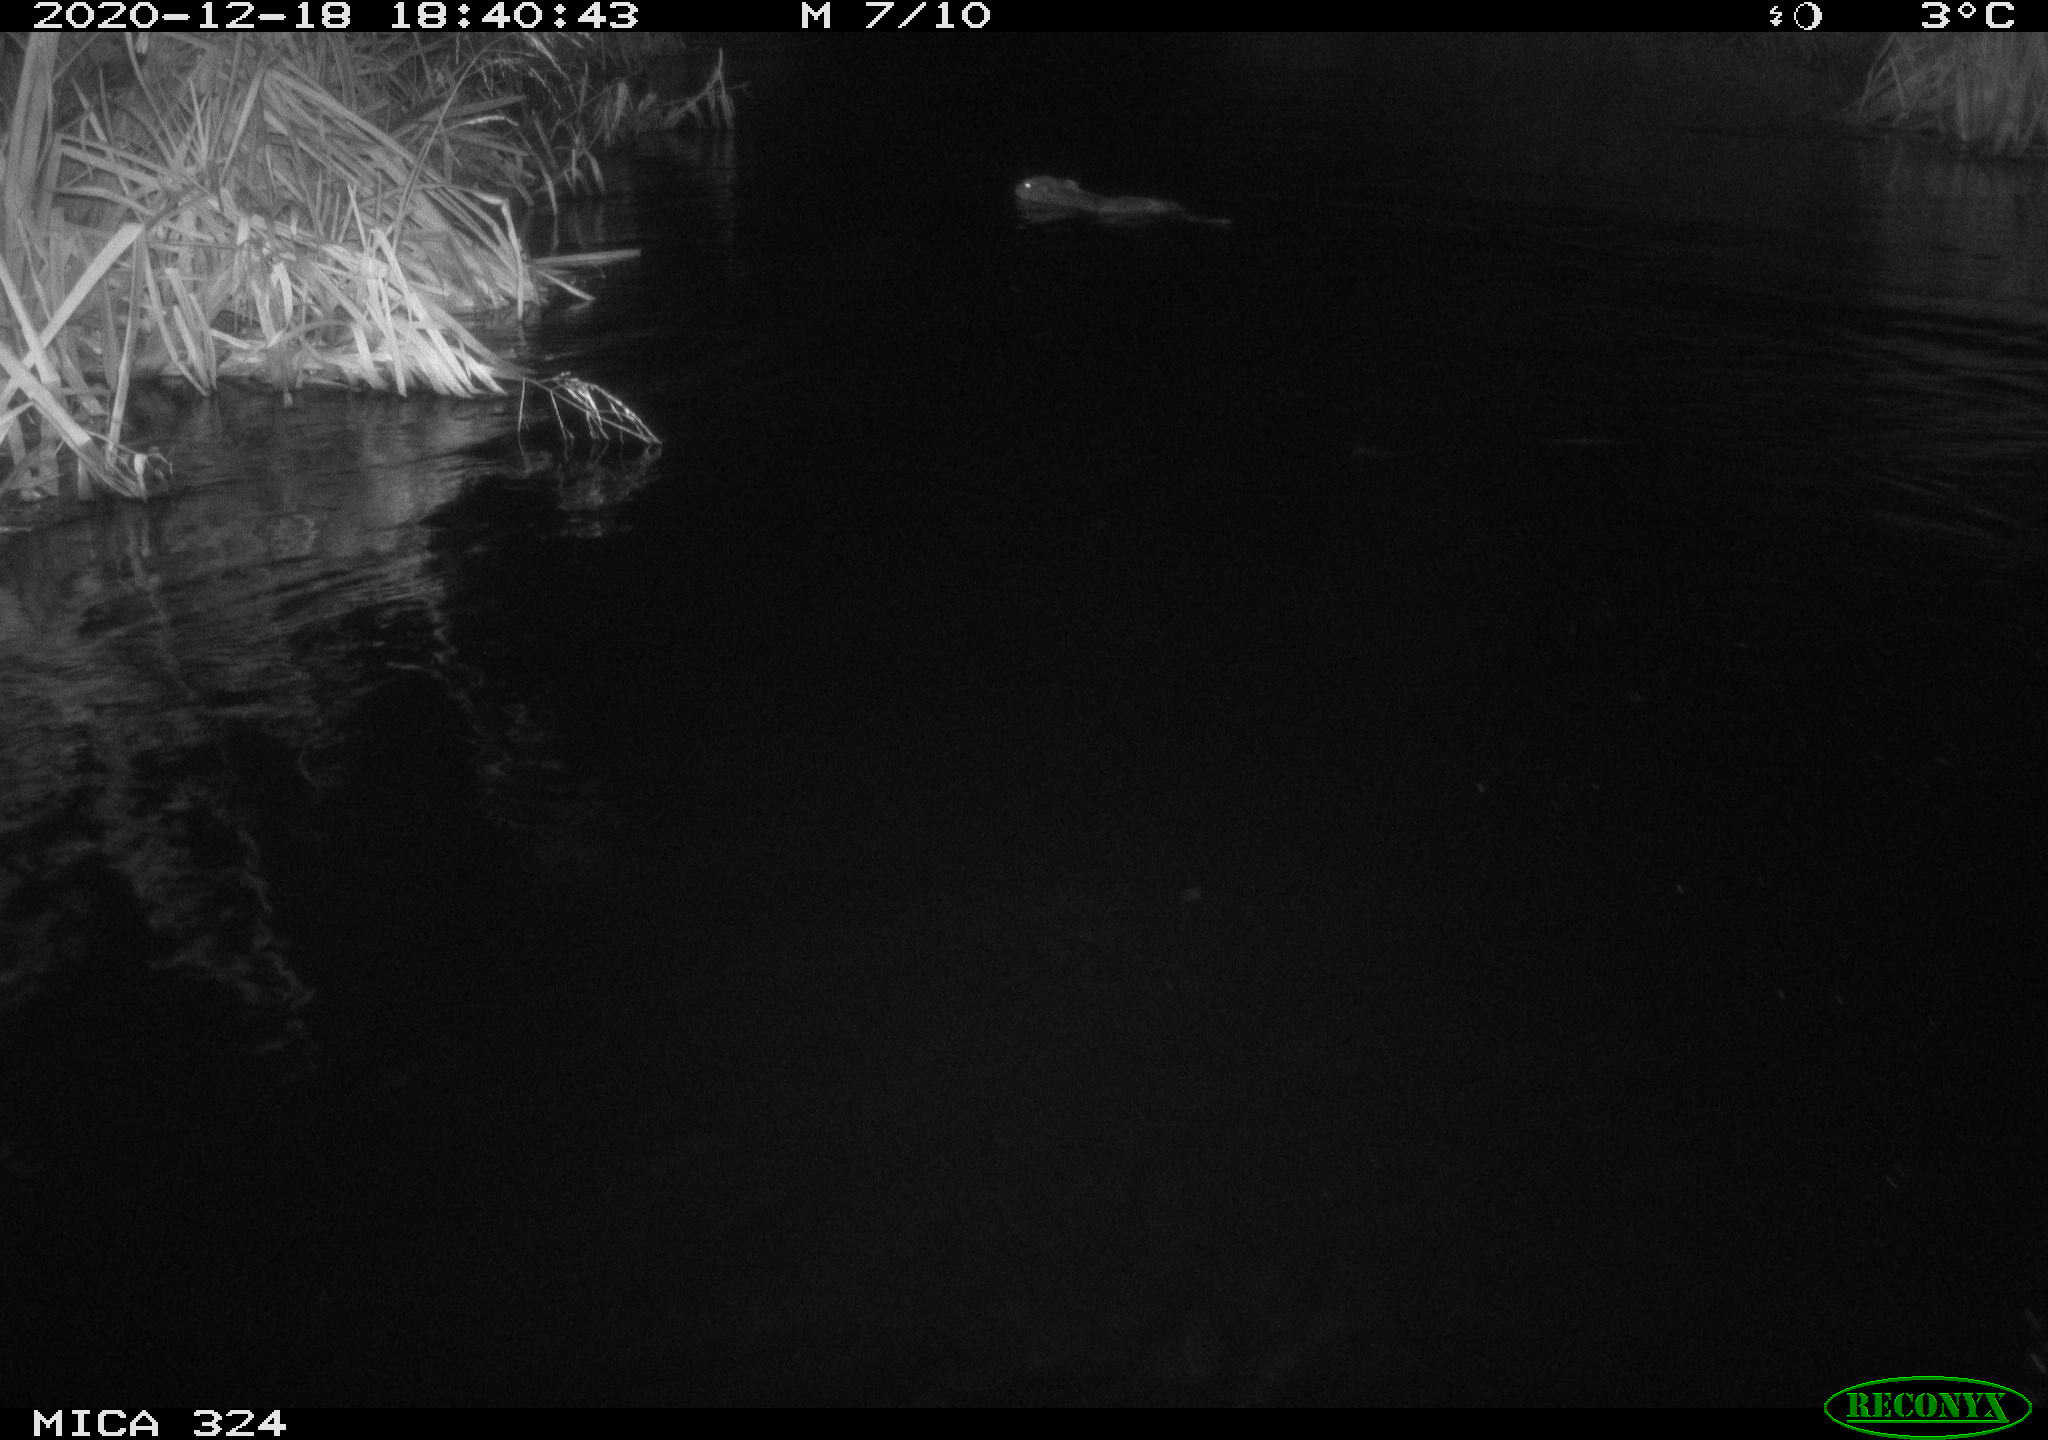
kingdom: Animalia
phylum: Chordata
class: Mammalia
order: Rodentia
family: Castoridae
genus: Castor
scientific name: Castor fiber
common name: Eurasian beaver
